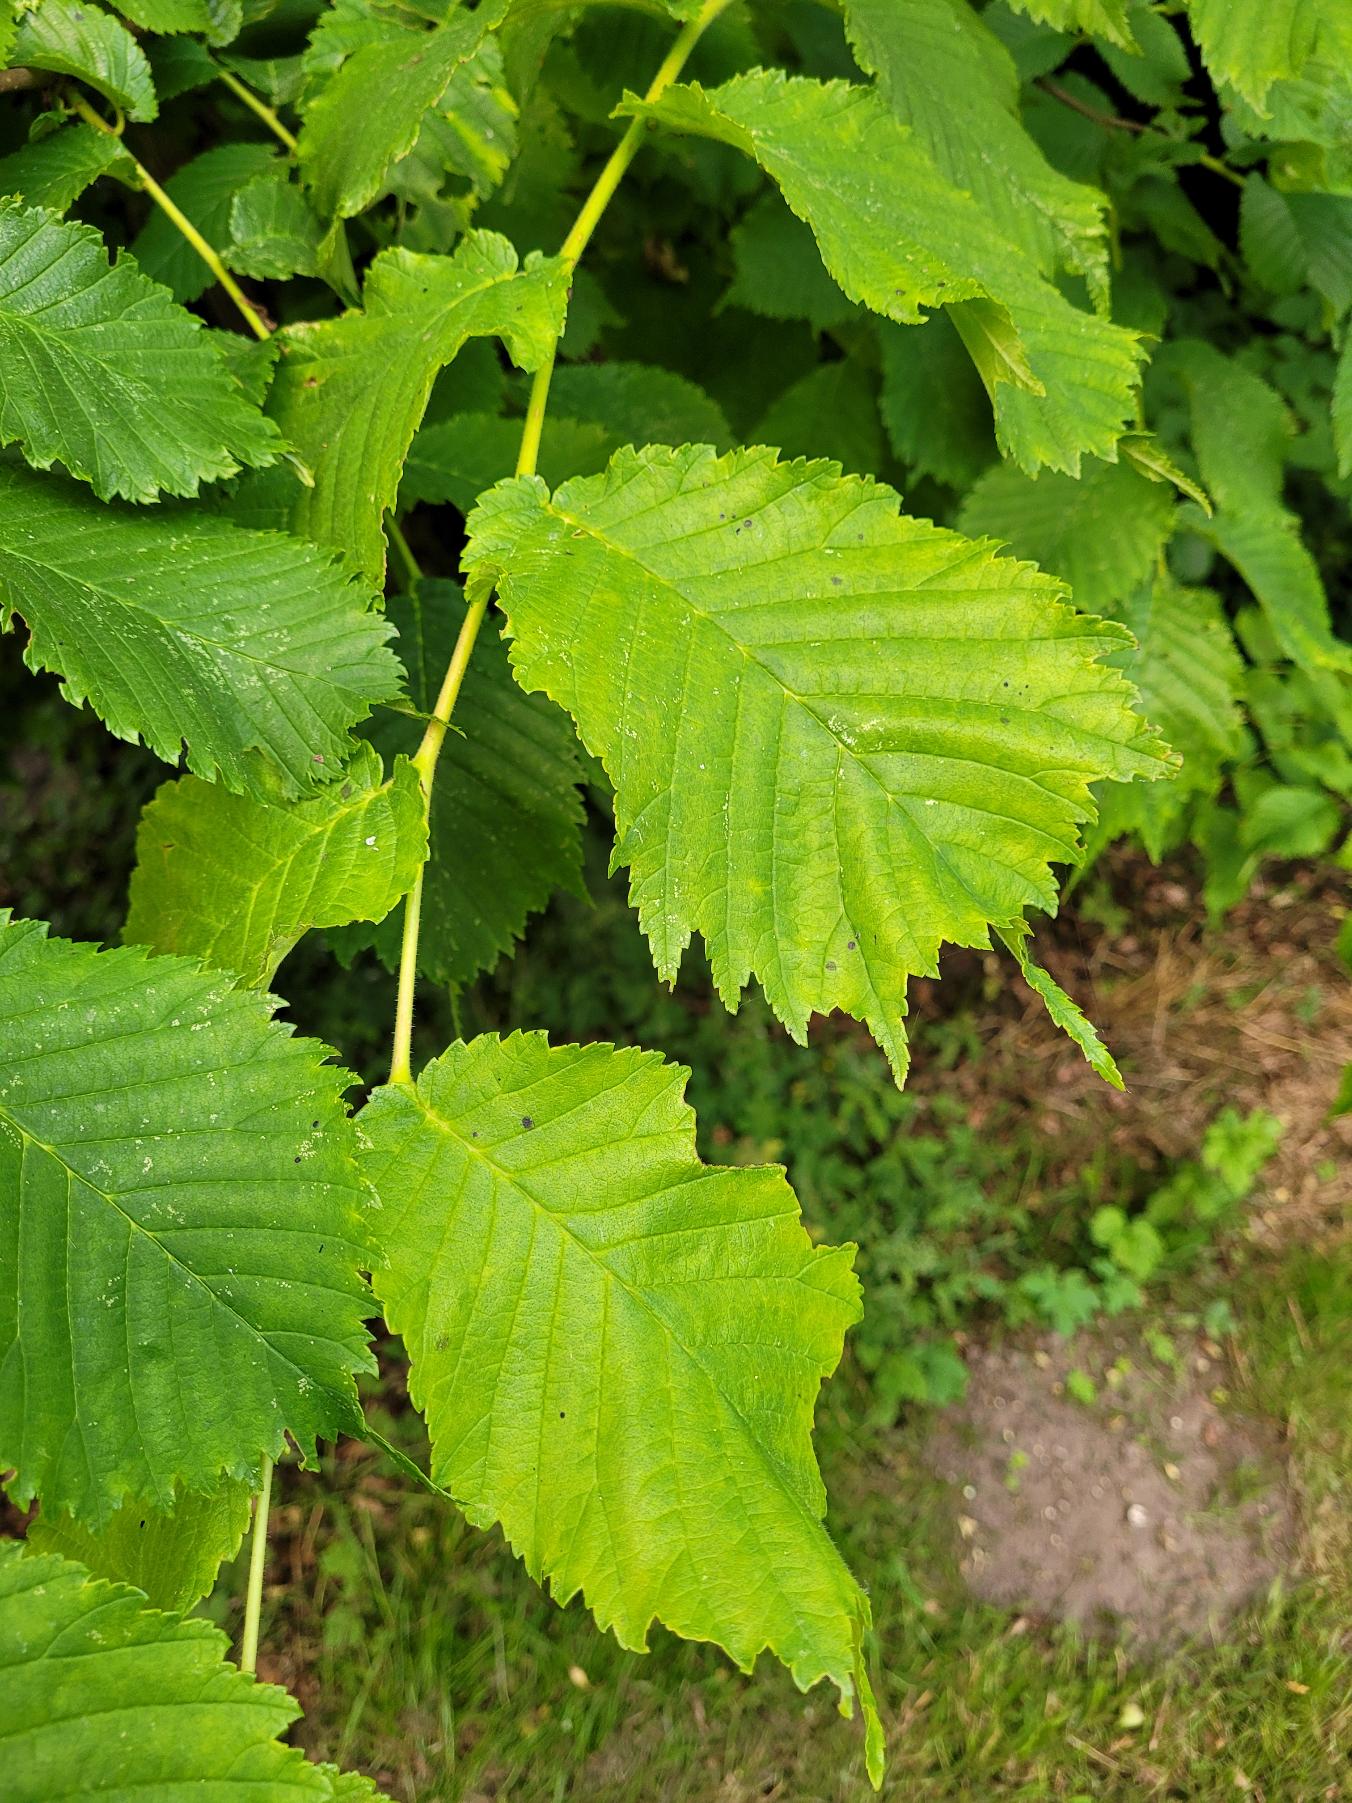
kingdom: Plantae
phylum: Tracheophyta
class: Magnoliopsida
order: Rosales
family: Ulmaceae
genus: Ulmus
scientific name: Ulmus glabra
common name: Skov-elm/storbladet elm
